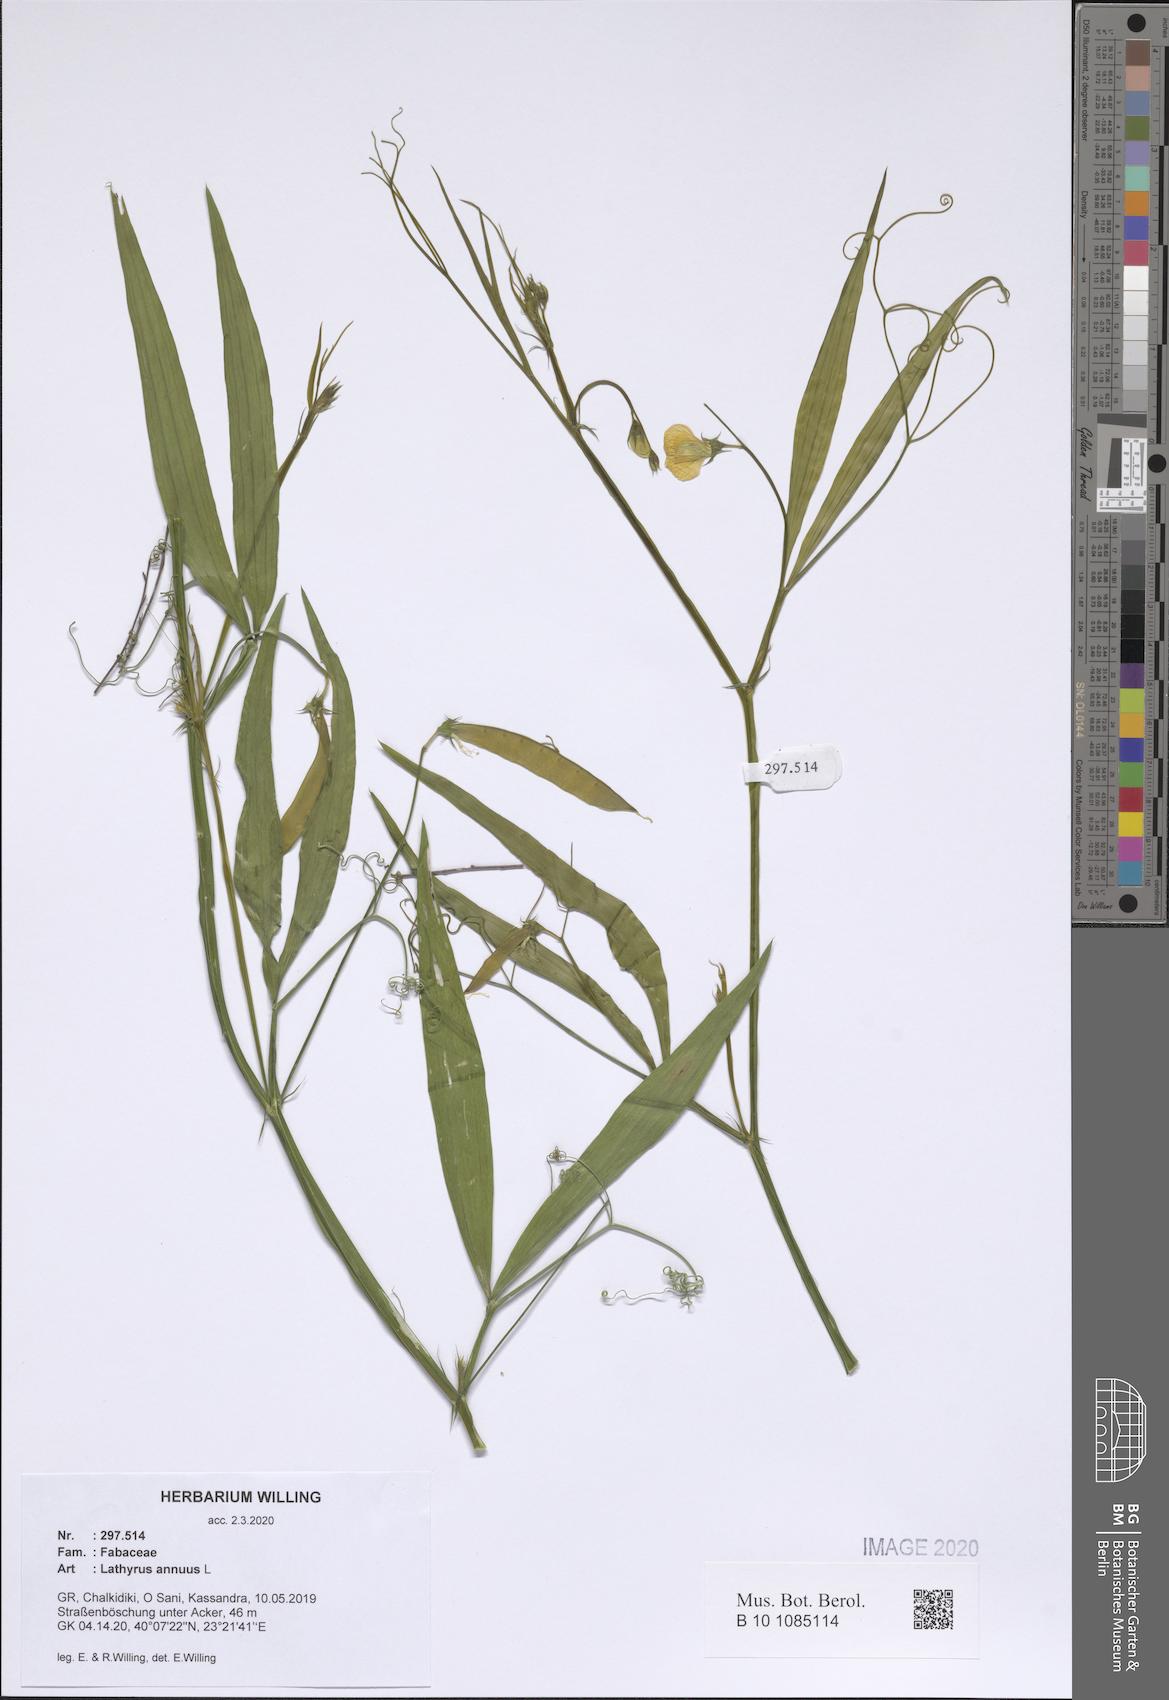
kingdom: Plantae
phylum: Tracheophyta
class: Magnoliopsida
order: Fabales
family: Fabaceae
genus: Lathyrus
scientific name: Lathyrus annuus
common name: Fodder pea
